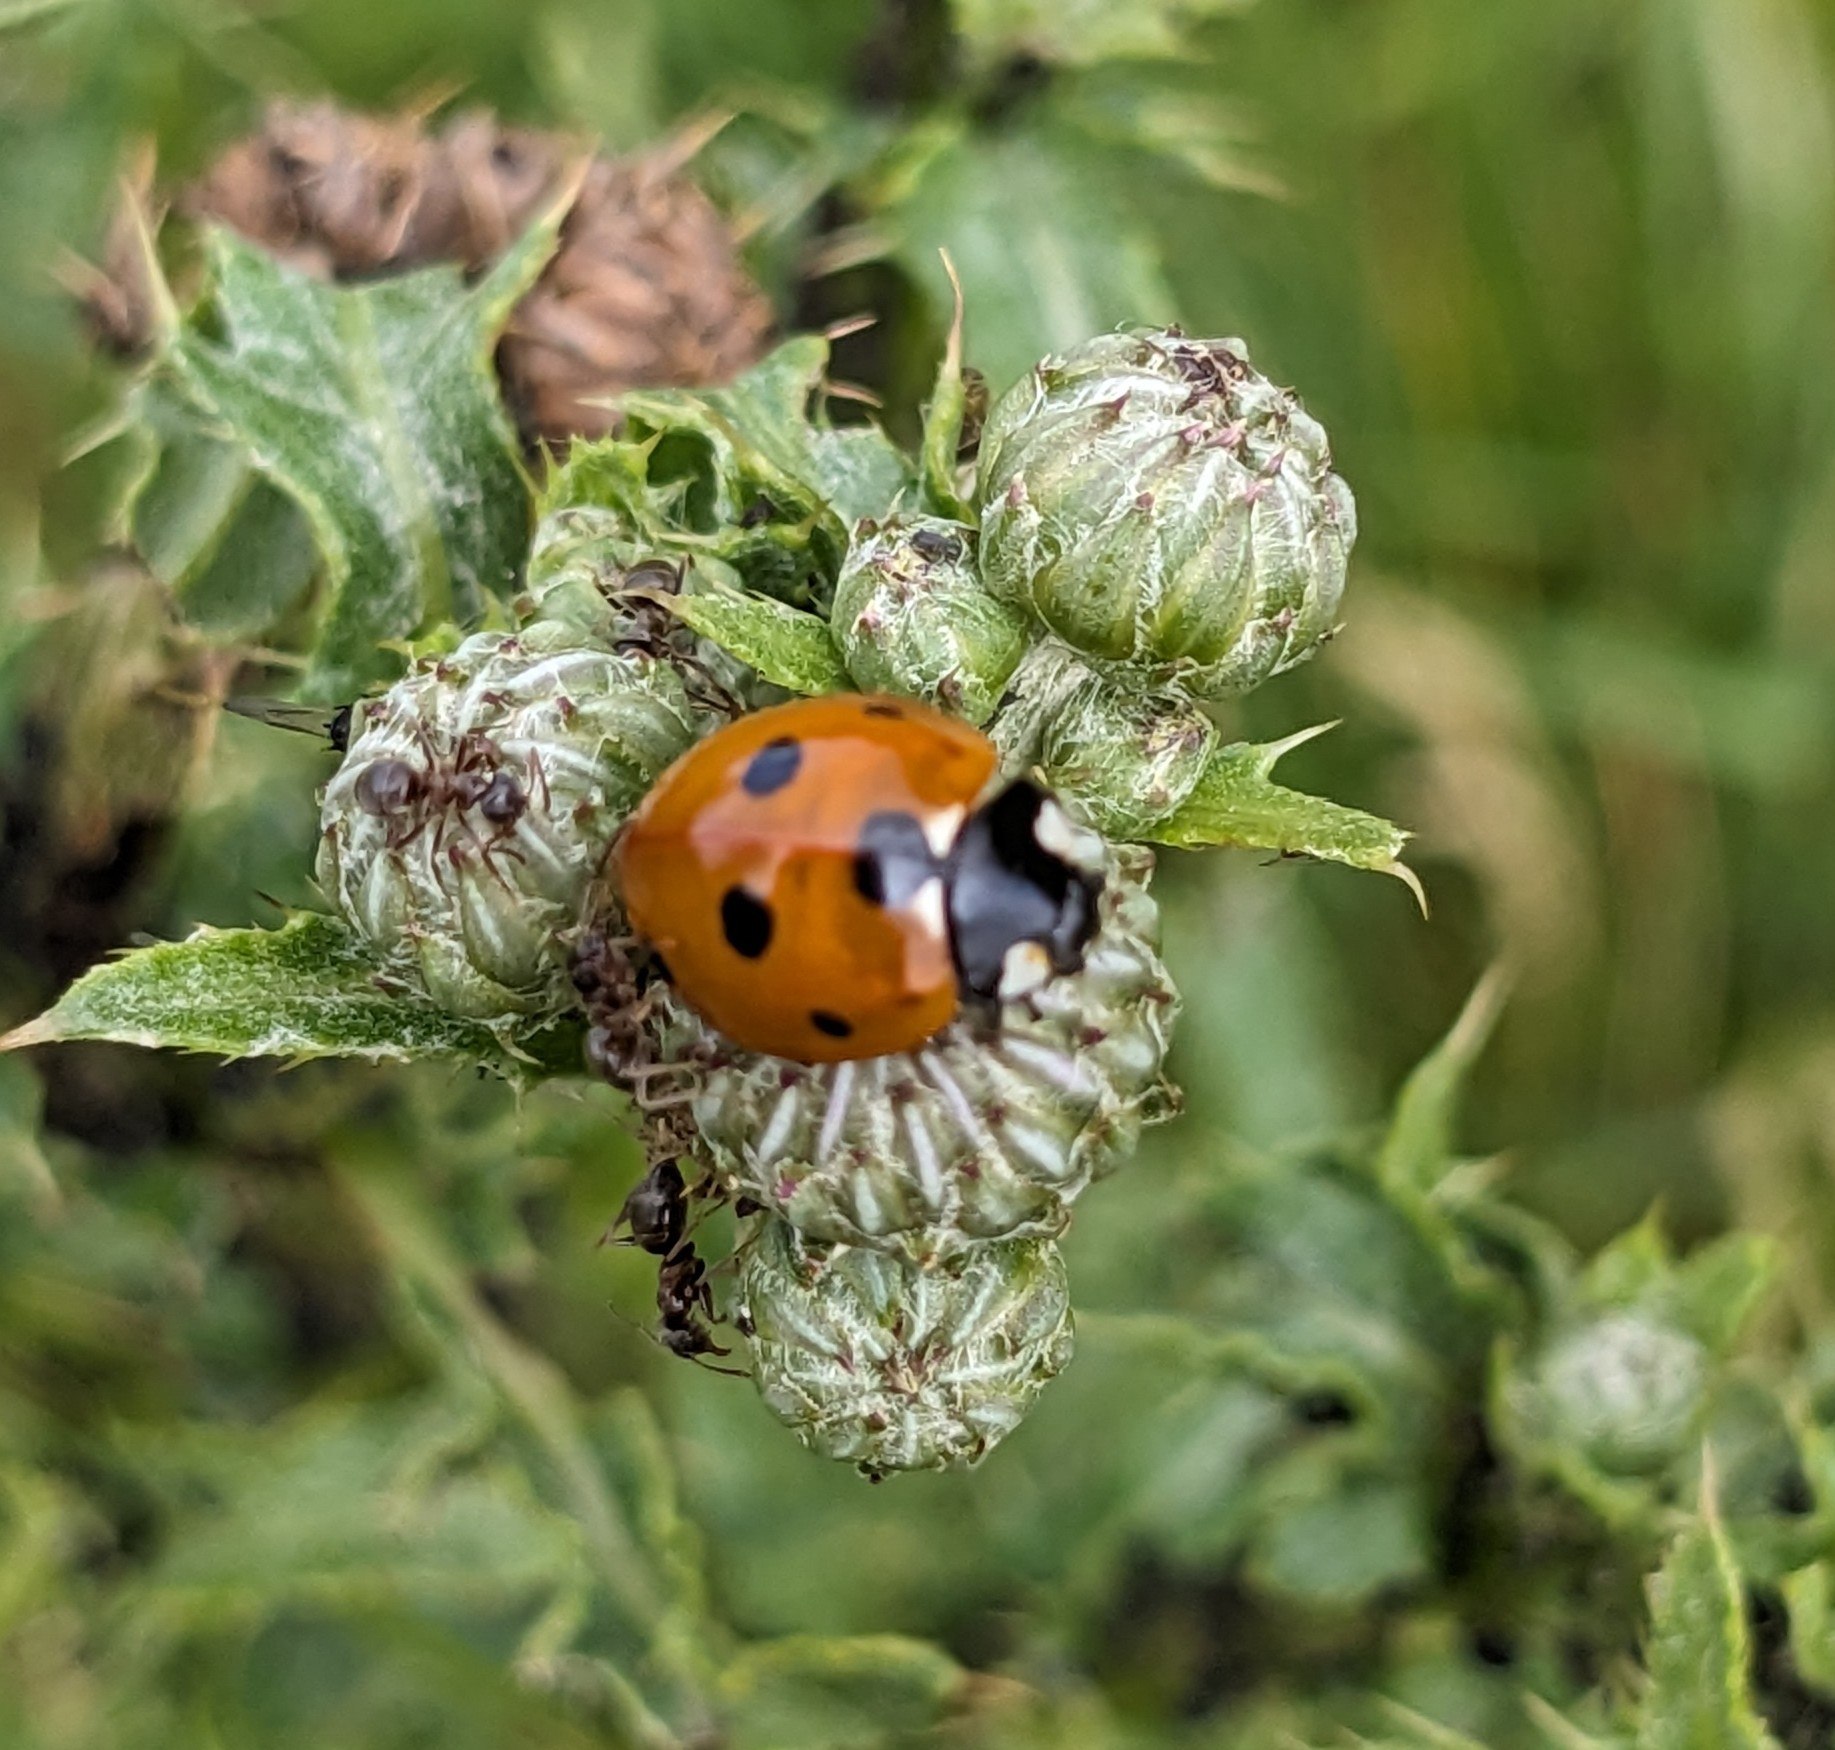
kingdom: Animalia
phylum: Arthropoda
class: Insecta
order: Coleoptera
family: Coccinellidae
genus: Coccinella
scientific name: Coccinella septempunctata
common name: Syvplettet mariehøne
